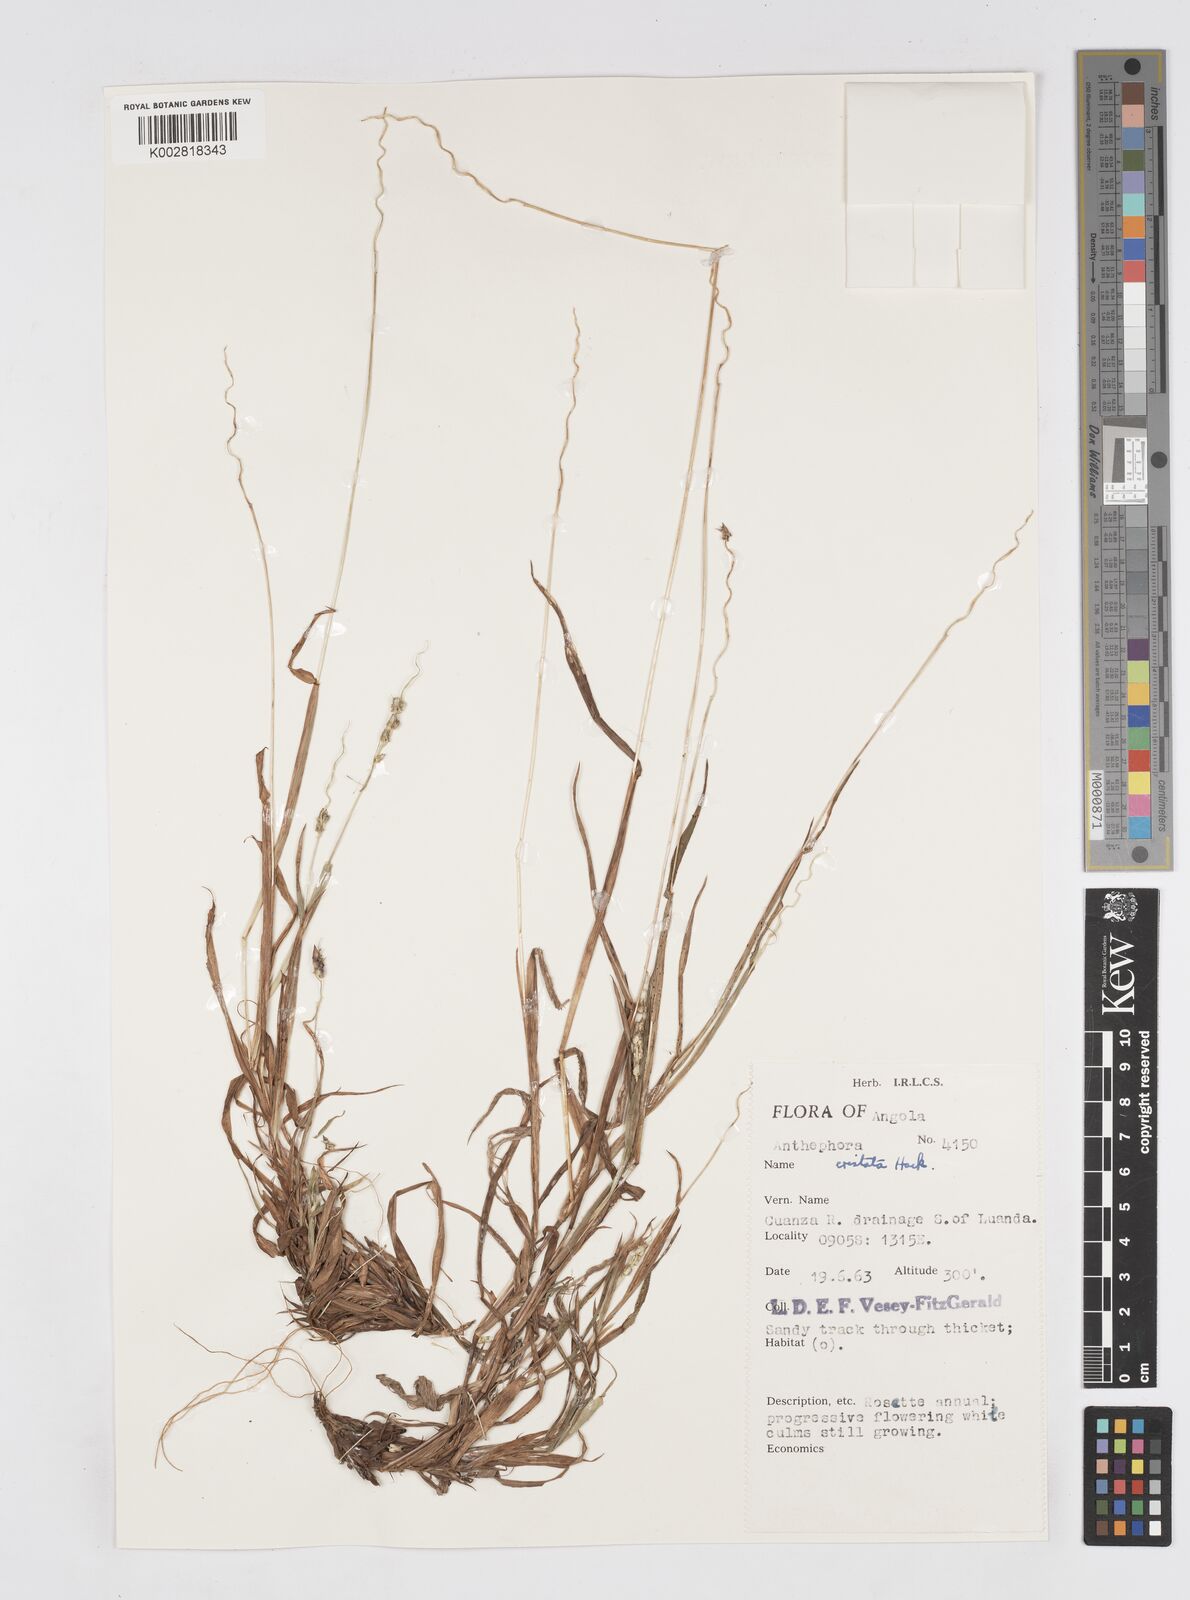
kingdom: Plantae
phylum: Tracheophyta
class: Liliopsida
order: Poales
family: Poaceae
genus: Anthephora
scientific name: Anthephora cristata
